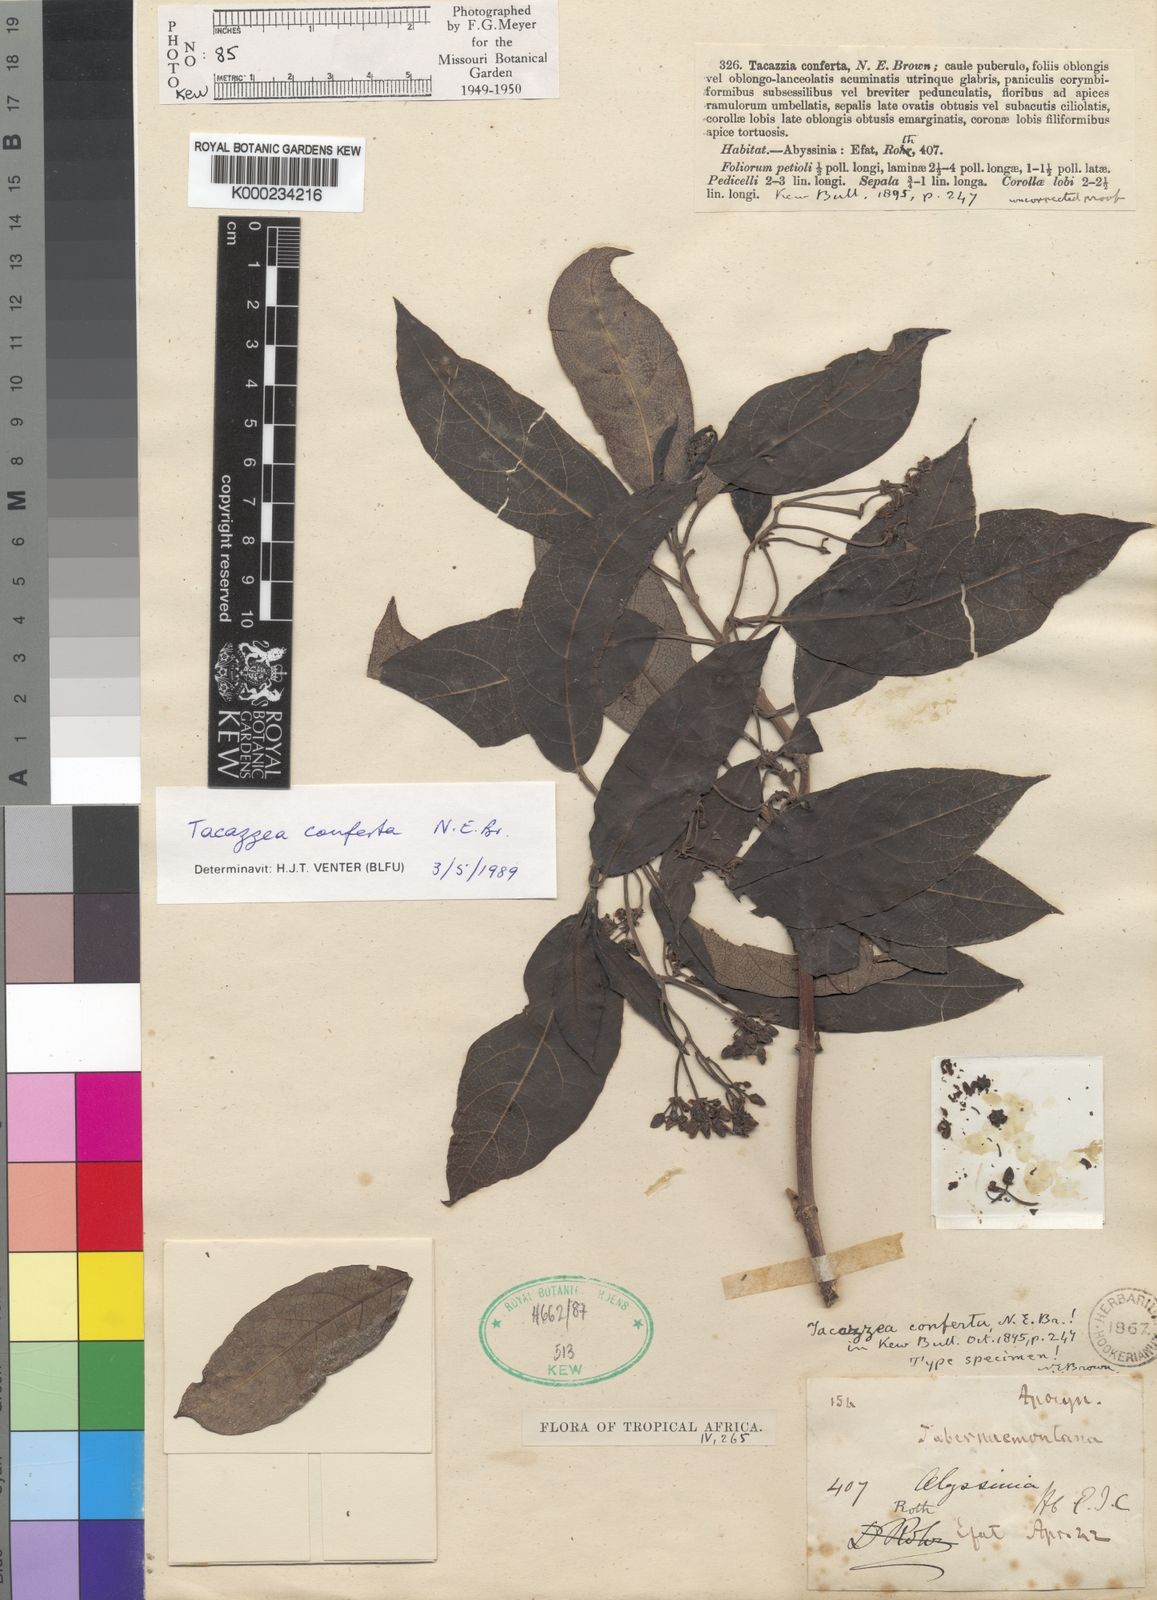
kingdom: Plantae
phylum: Tracheophyta
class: Magnoliopsida
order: Gentianales
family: Apocynaceae
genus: Tacazzea
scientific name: Tacazzea conferta
